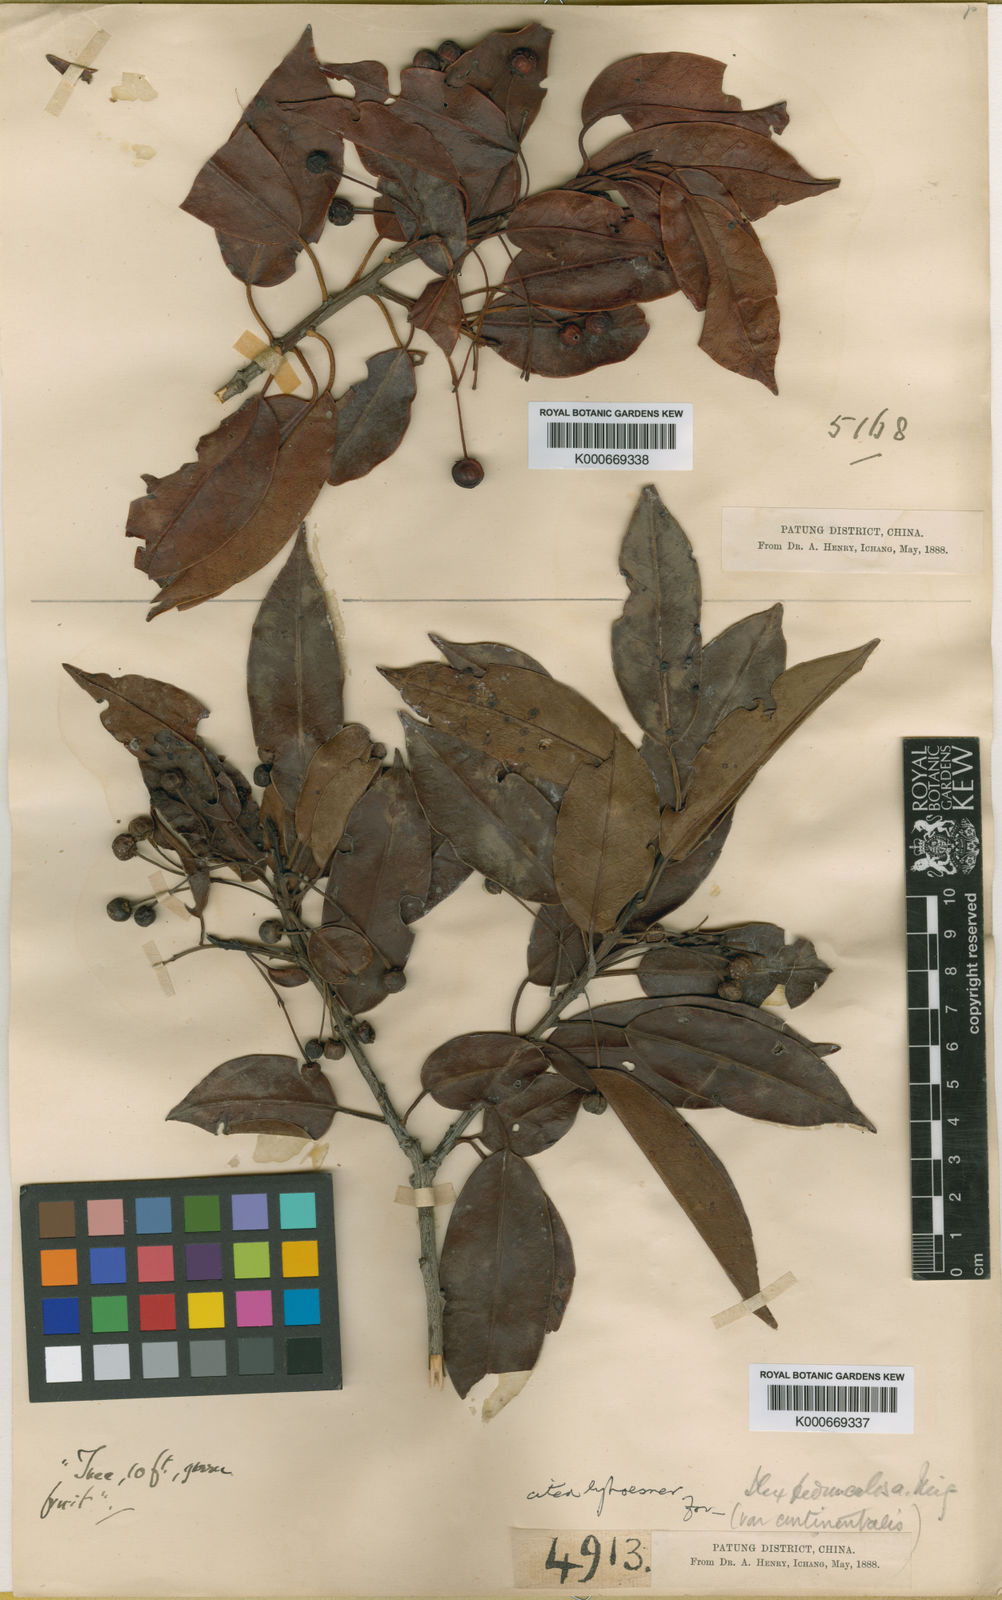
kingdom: Plantae
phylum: Tracheophyta
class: Magnoliopsida
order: Aquifoliales
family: Aquifoliaceae
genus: Ilex
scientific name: Ilex pedunculosa
